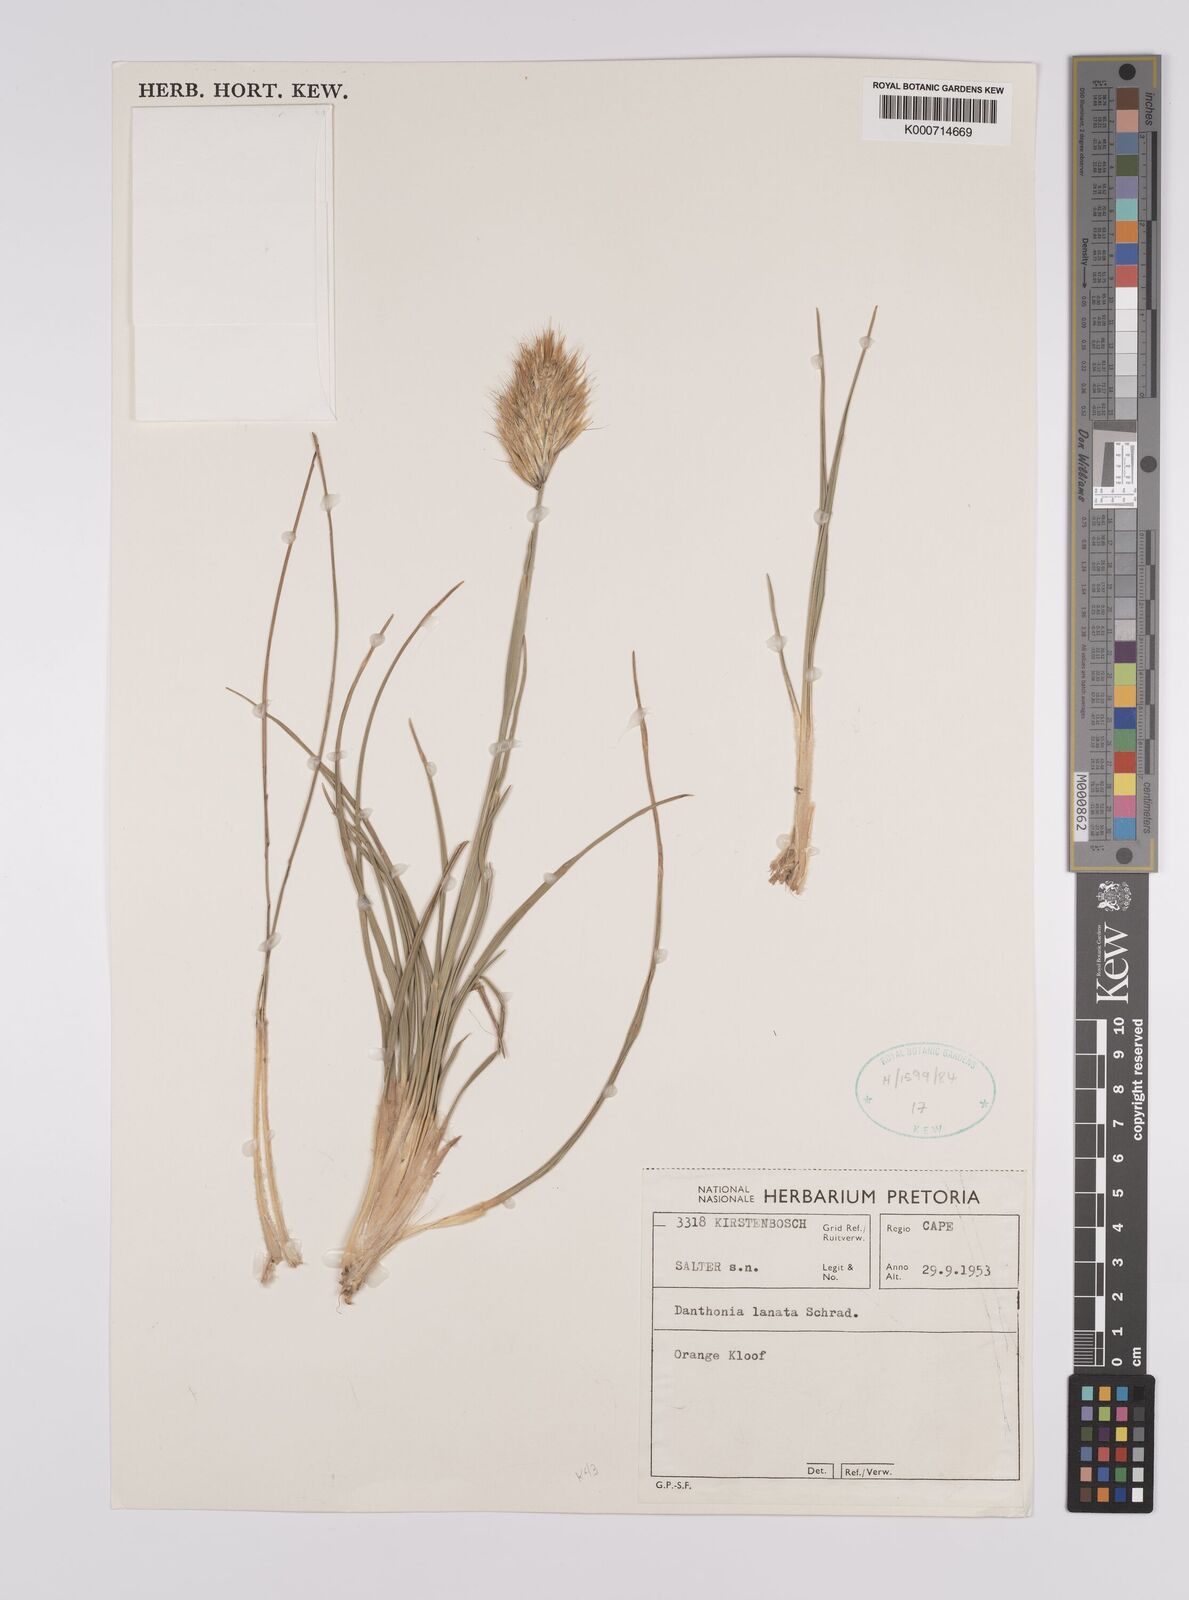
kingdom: Plantae
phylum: Tracheophyta
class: Liliopsida
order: Poales
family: Poaceae
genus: Rytidosperma
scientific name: Rytidosperma
